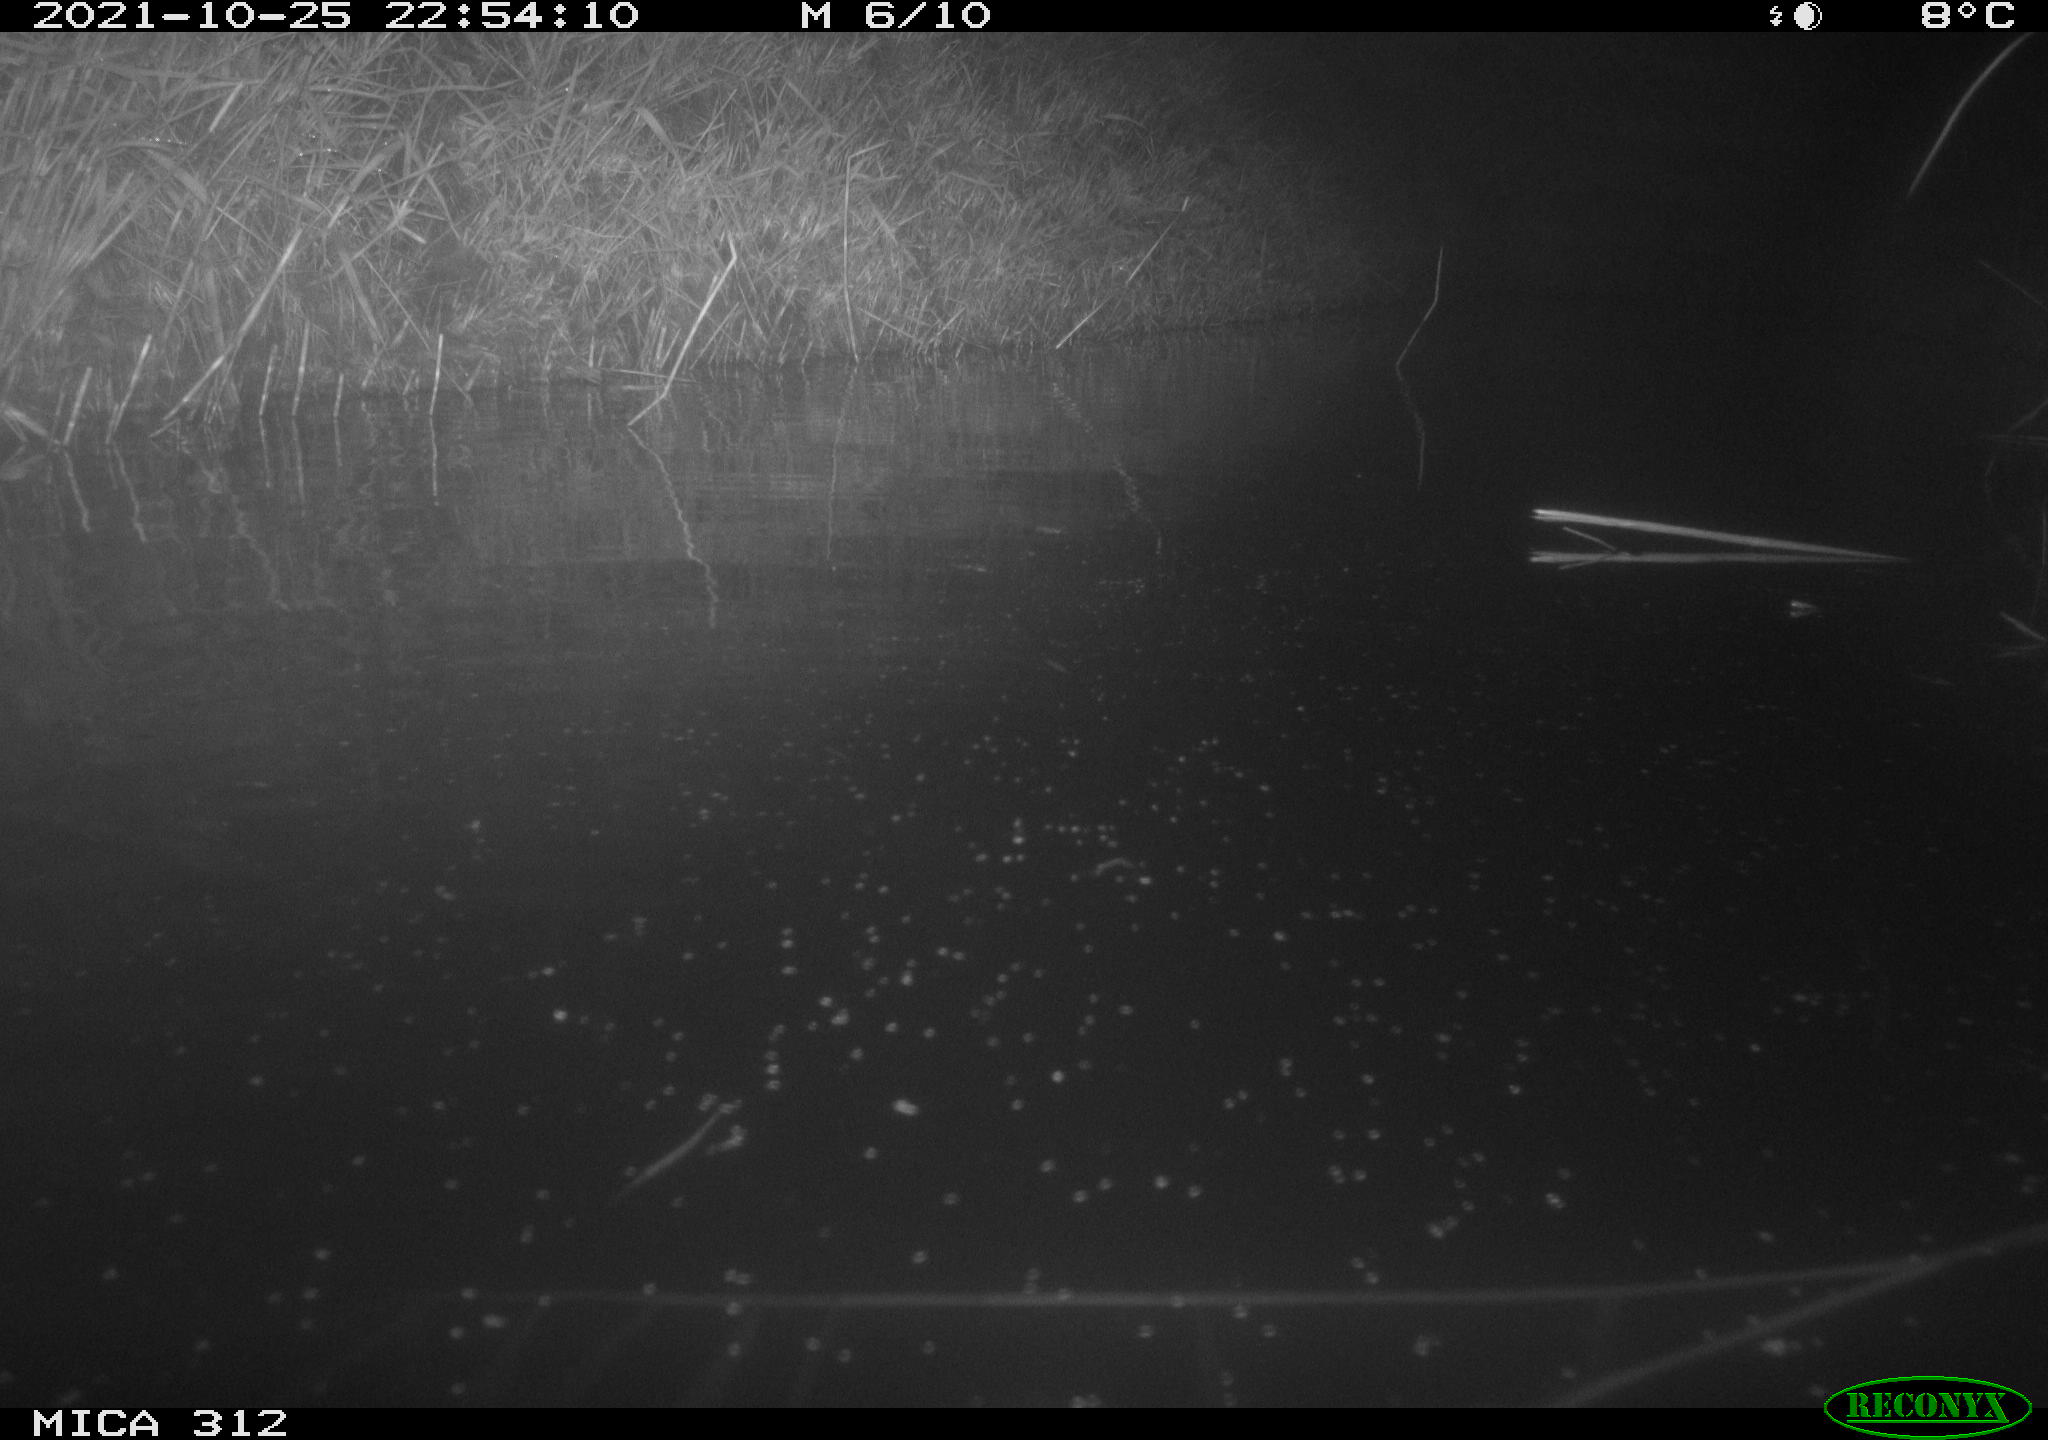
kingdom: Animalia
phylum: Chordata
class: Aves
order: Gruiformes
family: Rallidae
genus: Gallinula
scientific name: Gallinula chloropus
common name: Common moorhen
